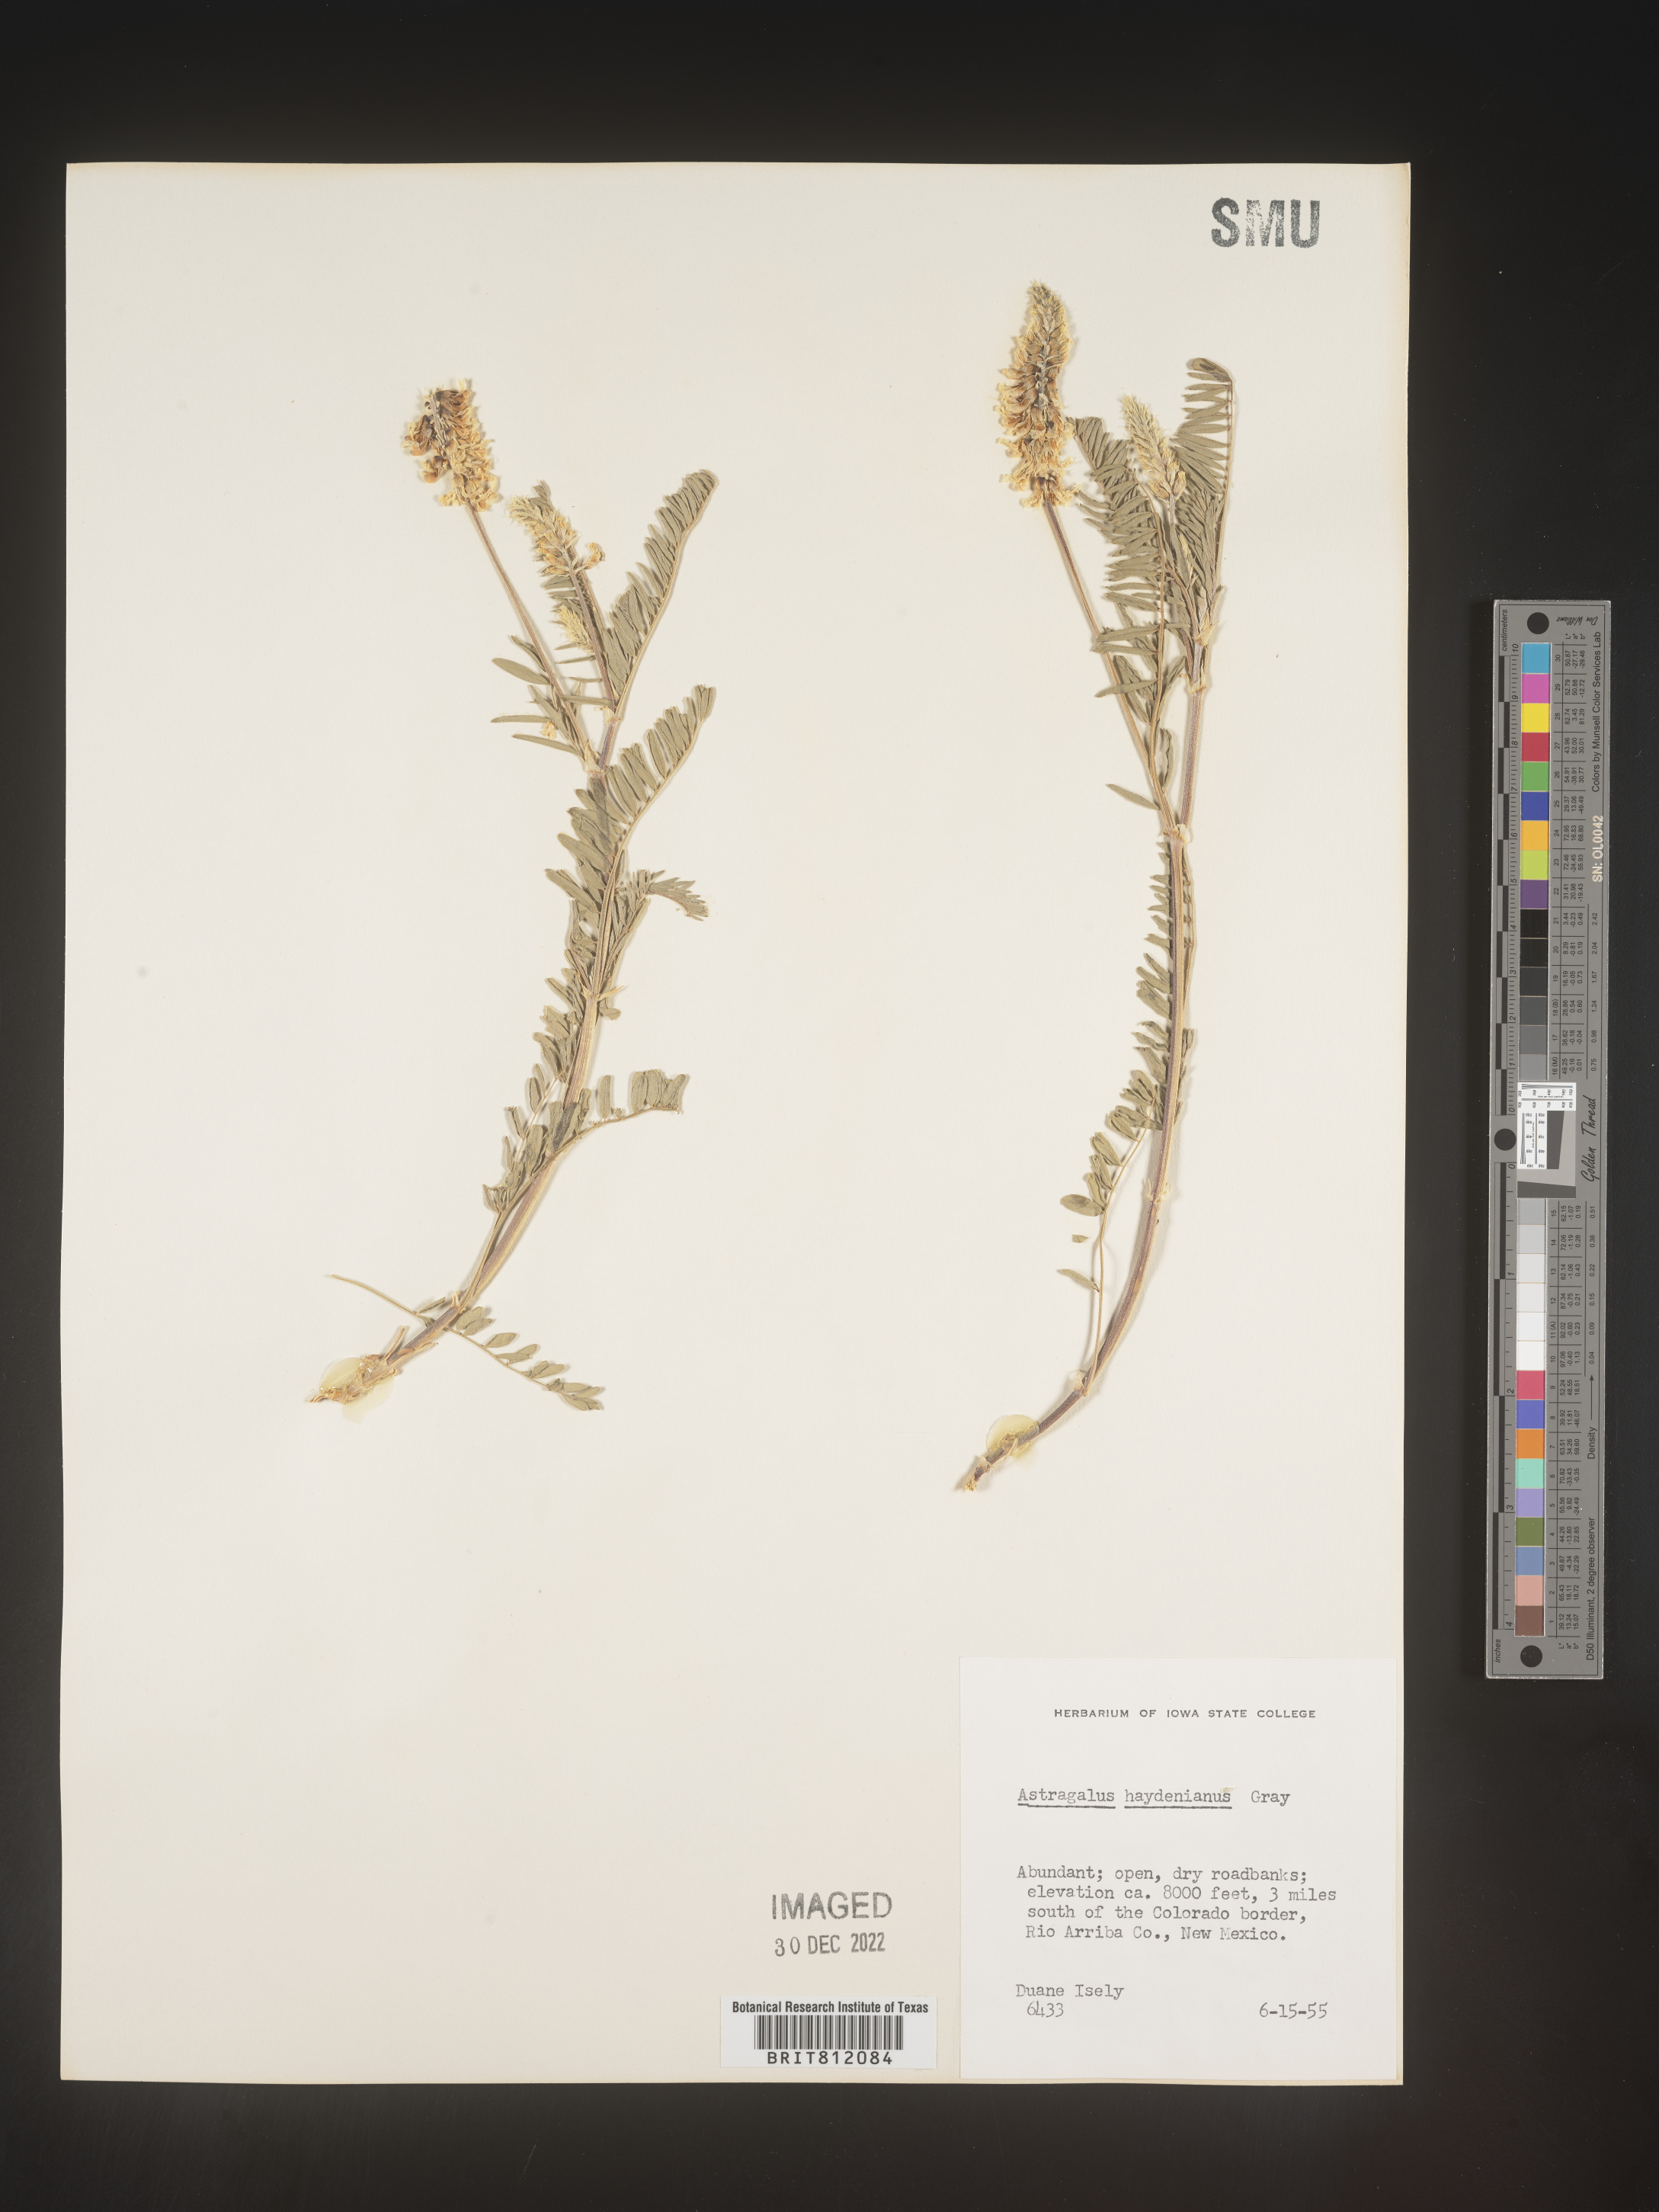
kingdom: Plantae
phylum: Tracheophyta
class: Magnoliopsida
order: Fabales
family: Fabaceae
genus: Astragalus
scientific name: Astragalus
